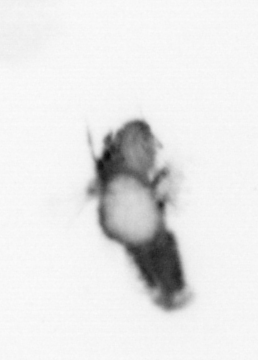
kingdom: Animalia
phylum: Annelida
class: Polychaeta
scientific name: Polychaeta
